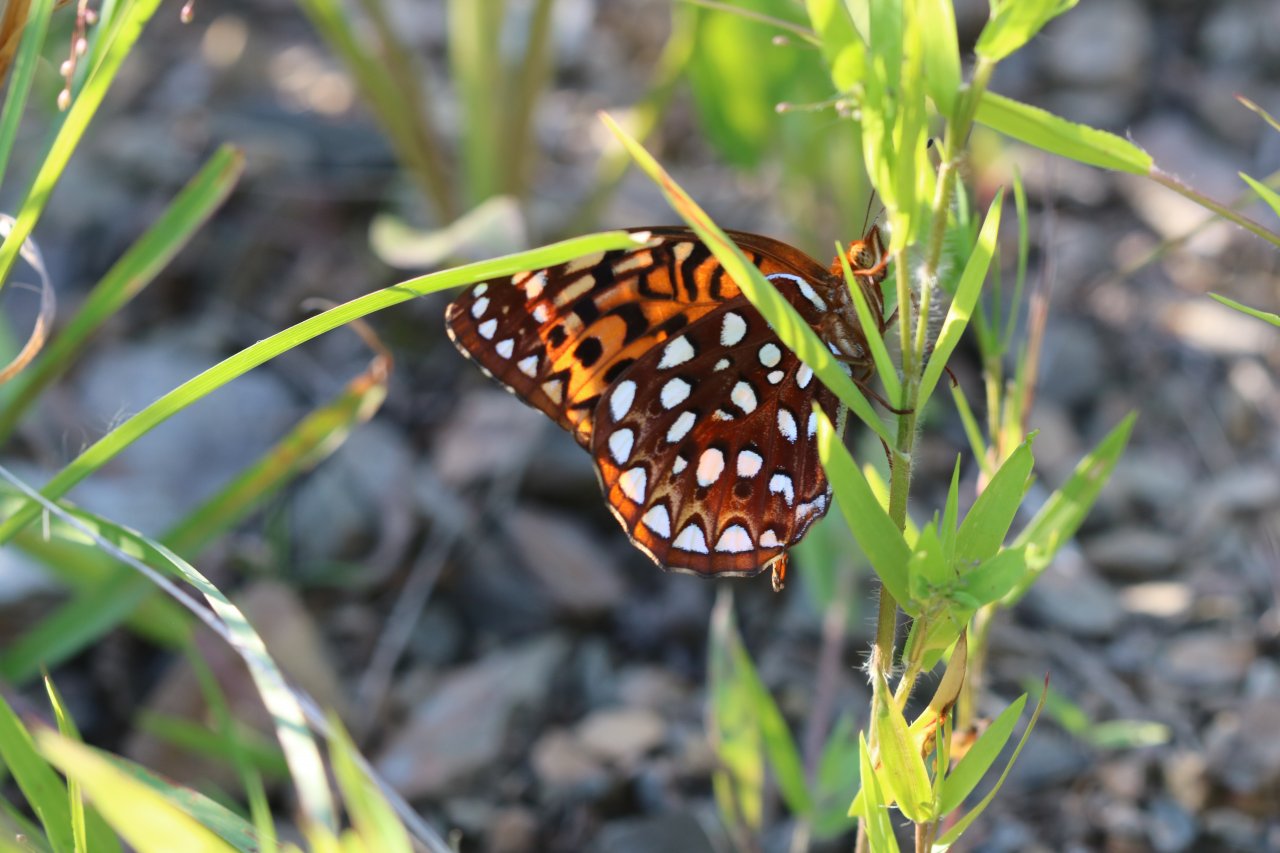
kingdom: Animalia
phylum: Arthropoda
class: Insecta
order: Lepidoptera
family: Nymphalidae
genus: Speyeria
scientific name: Speyeria aphrodite
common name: Aphrodite Fritillary
